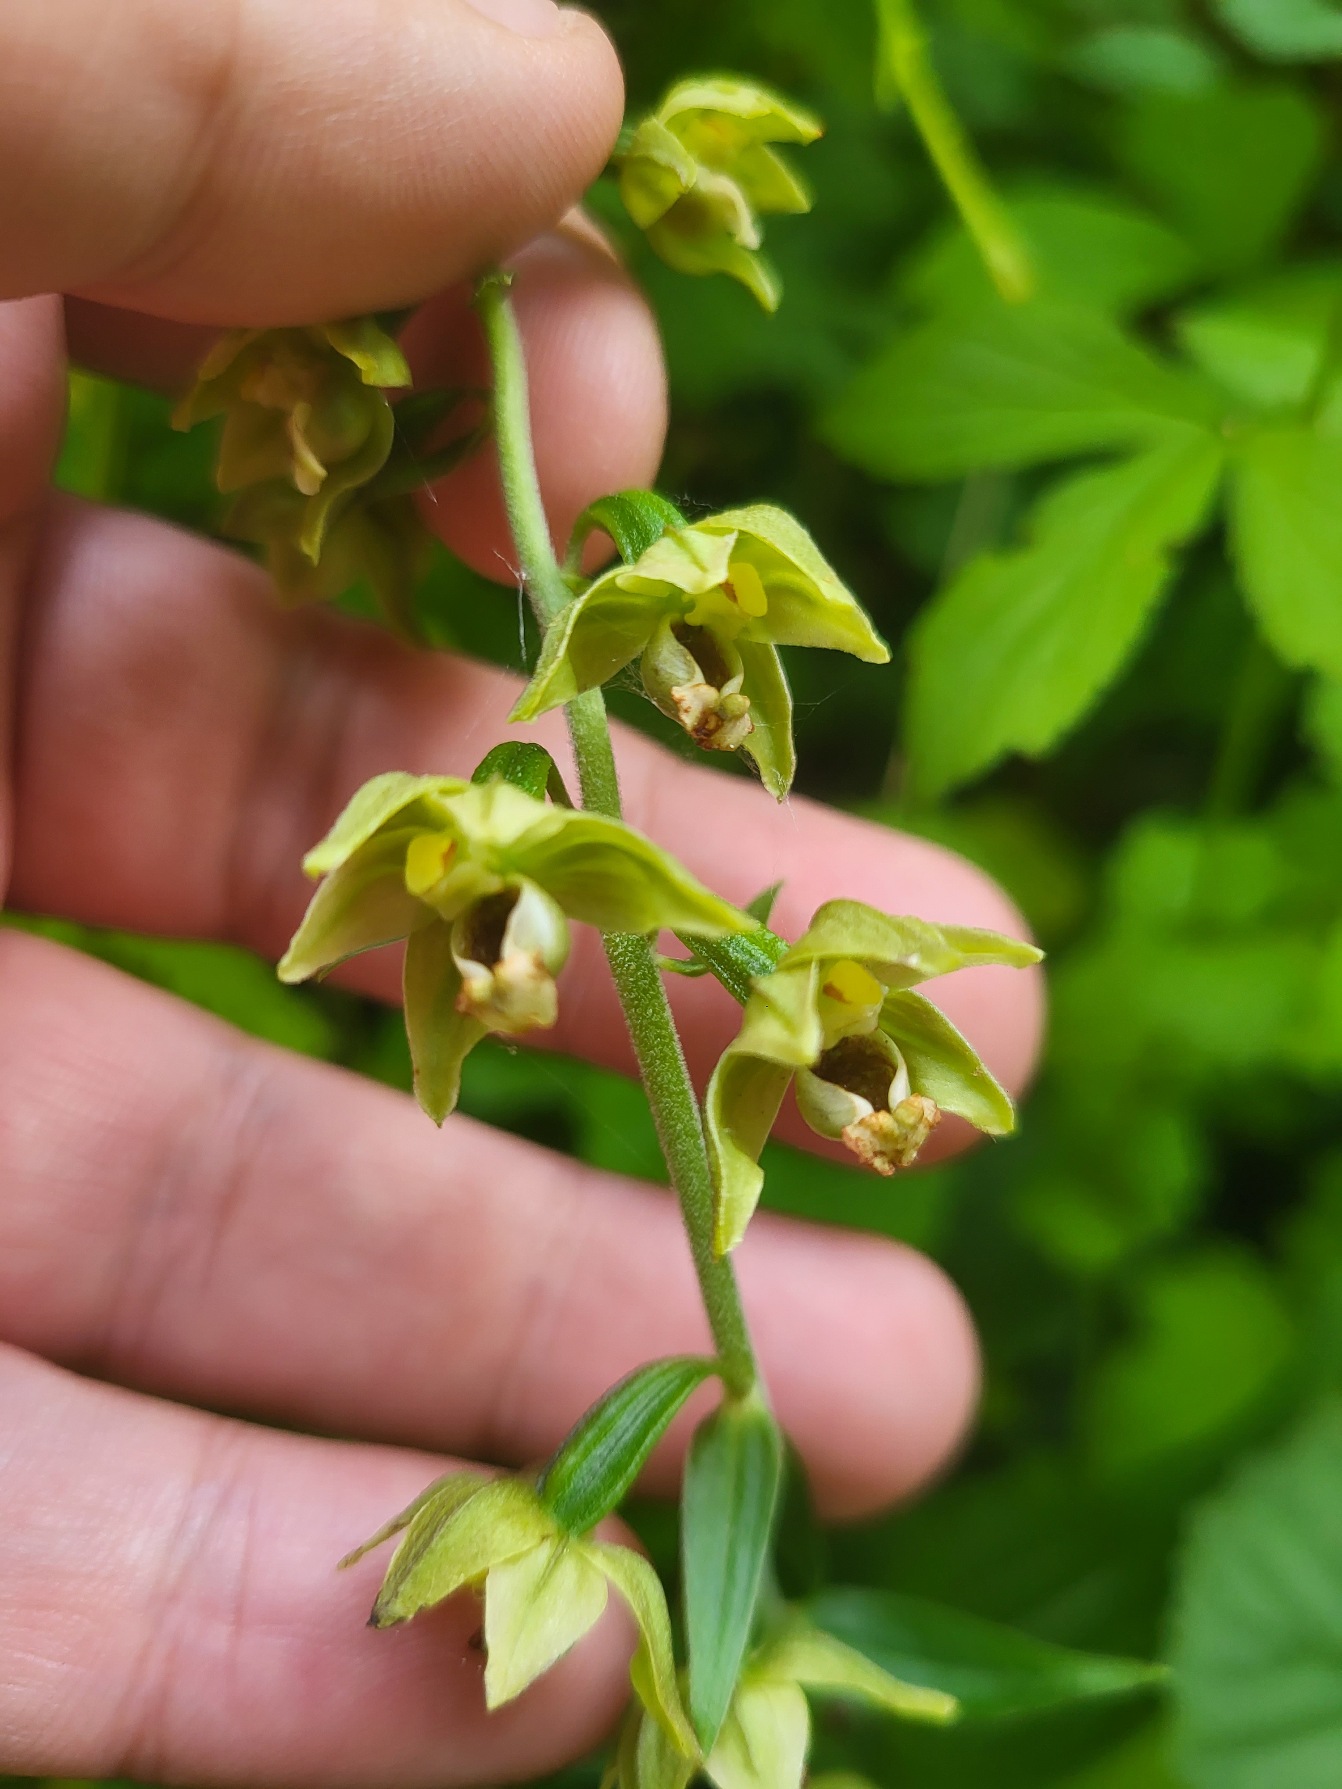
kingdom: Plantae
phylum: Tracheophyta
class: Liliopsida
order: Asparagales
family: Orchidaceae
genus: Epipactis
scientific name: Epipactis helleborine
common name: Skov-hullæbe
